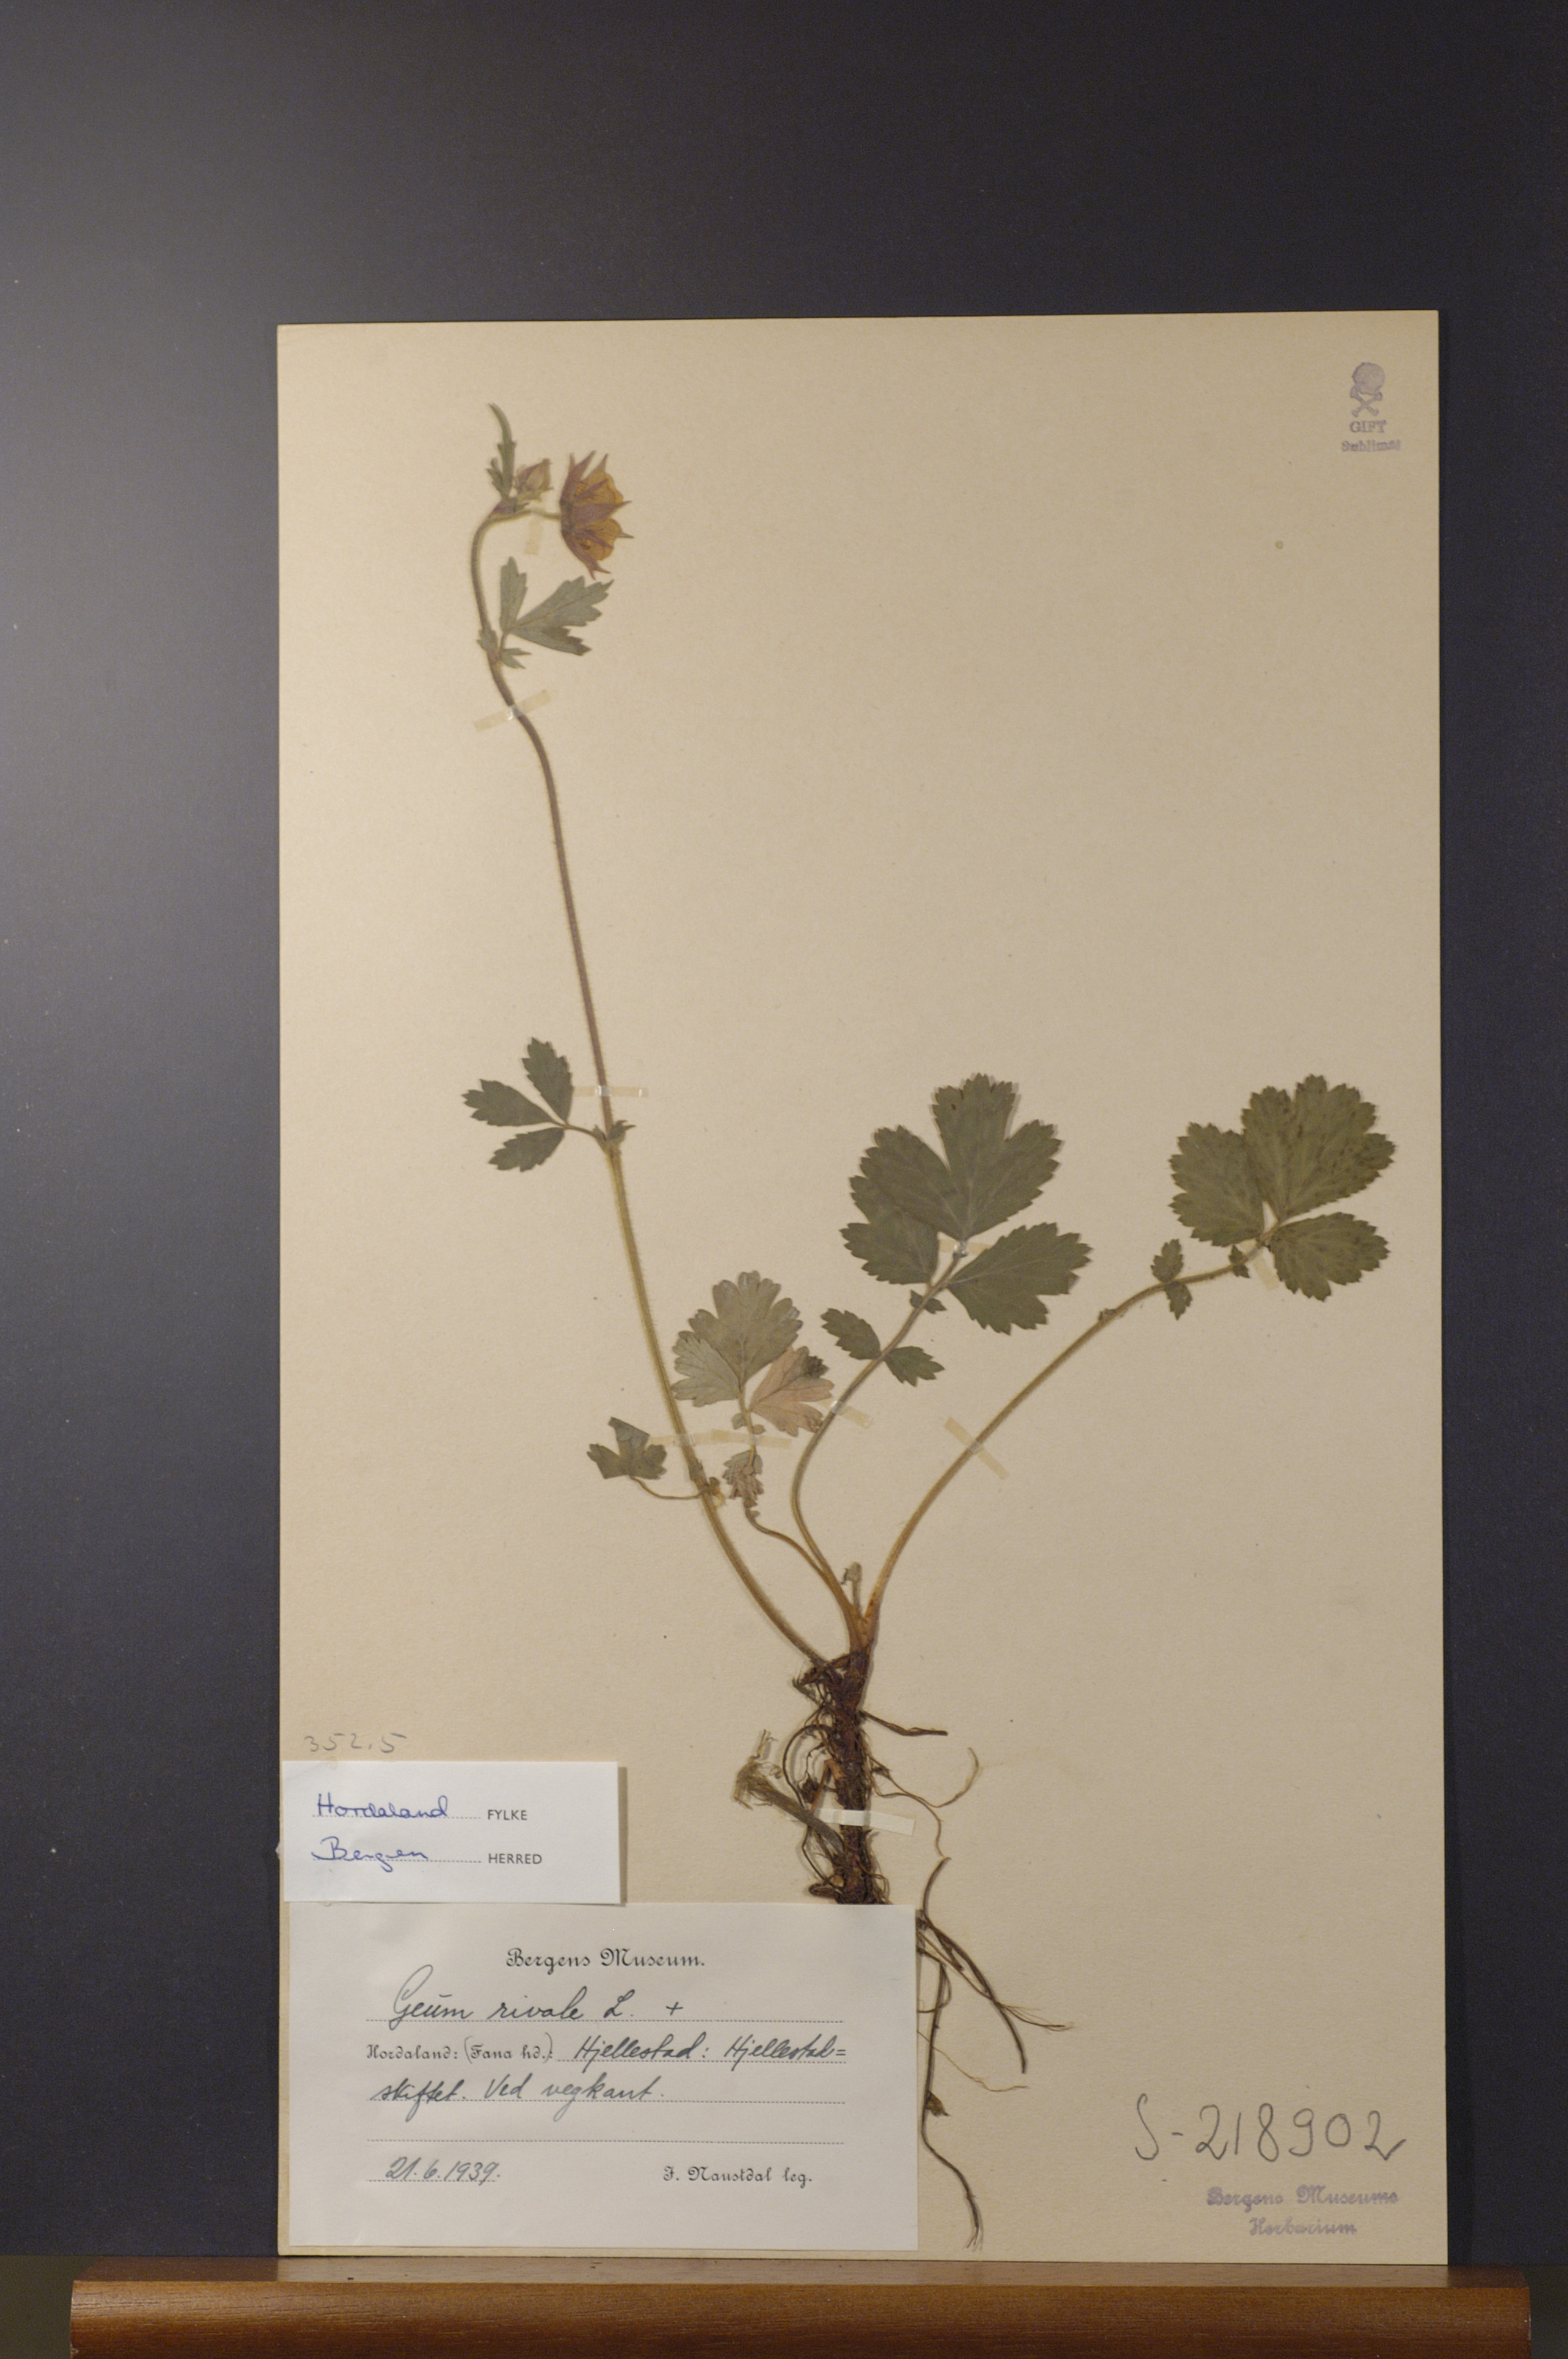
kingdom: Plantae
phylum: Tracheophyta
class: Magnoliopsida
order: Rosales
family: Rosaceae
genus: Geum
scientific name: Geum rivale
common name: Water avens
